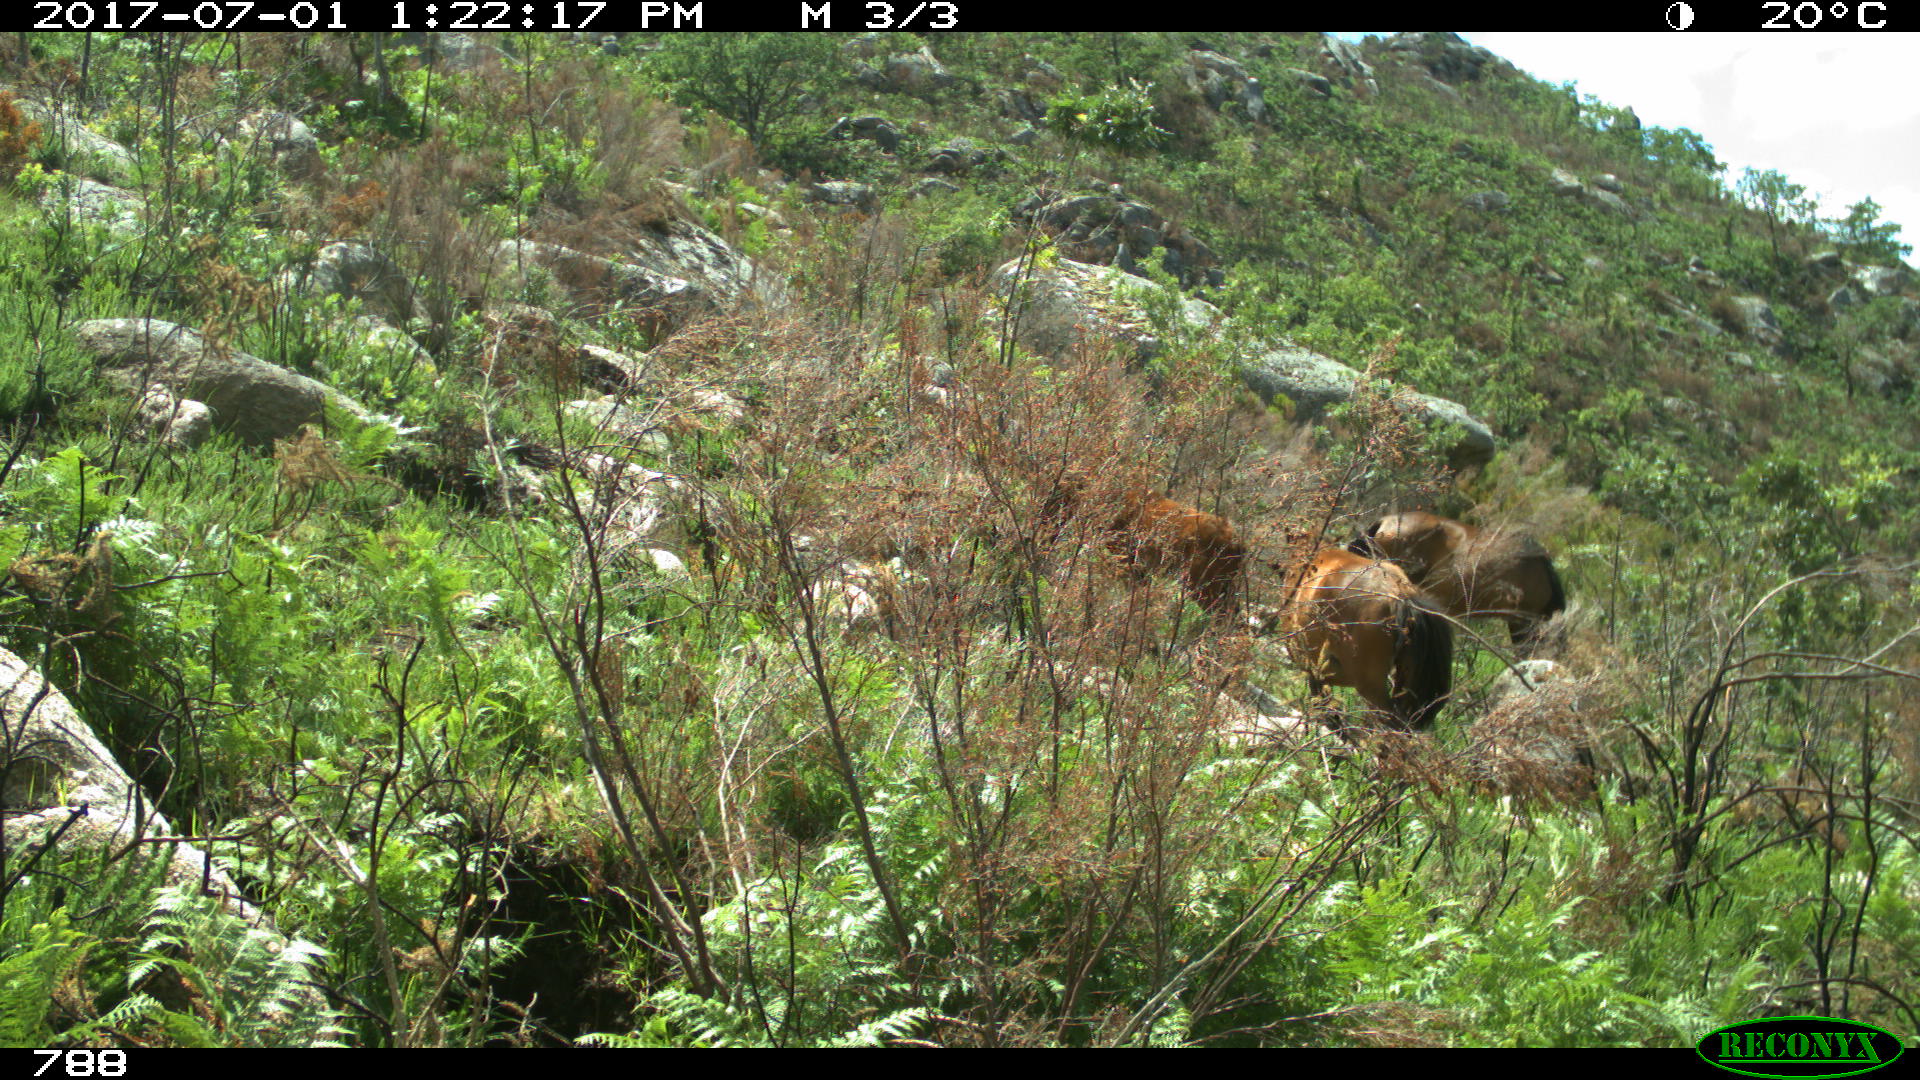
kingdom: Animalia
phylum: Chordata
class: Mammalia
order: Perissodactyla
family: Equidae
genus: Equus
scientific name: Equus caballus
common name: Horse
